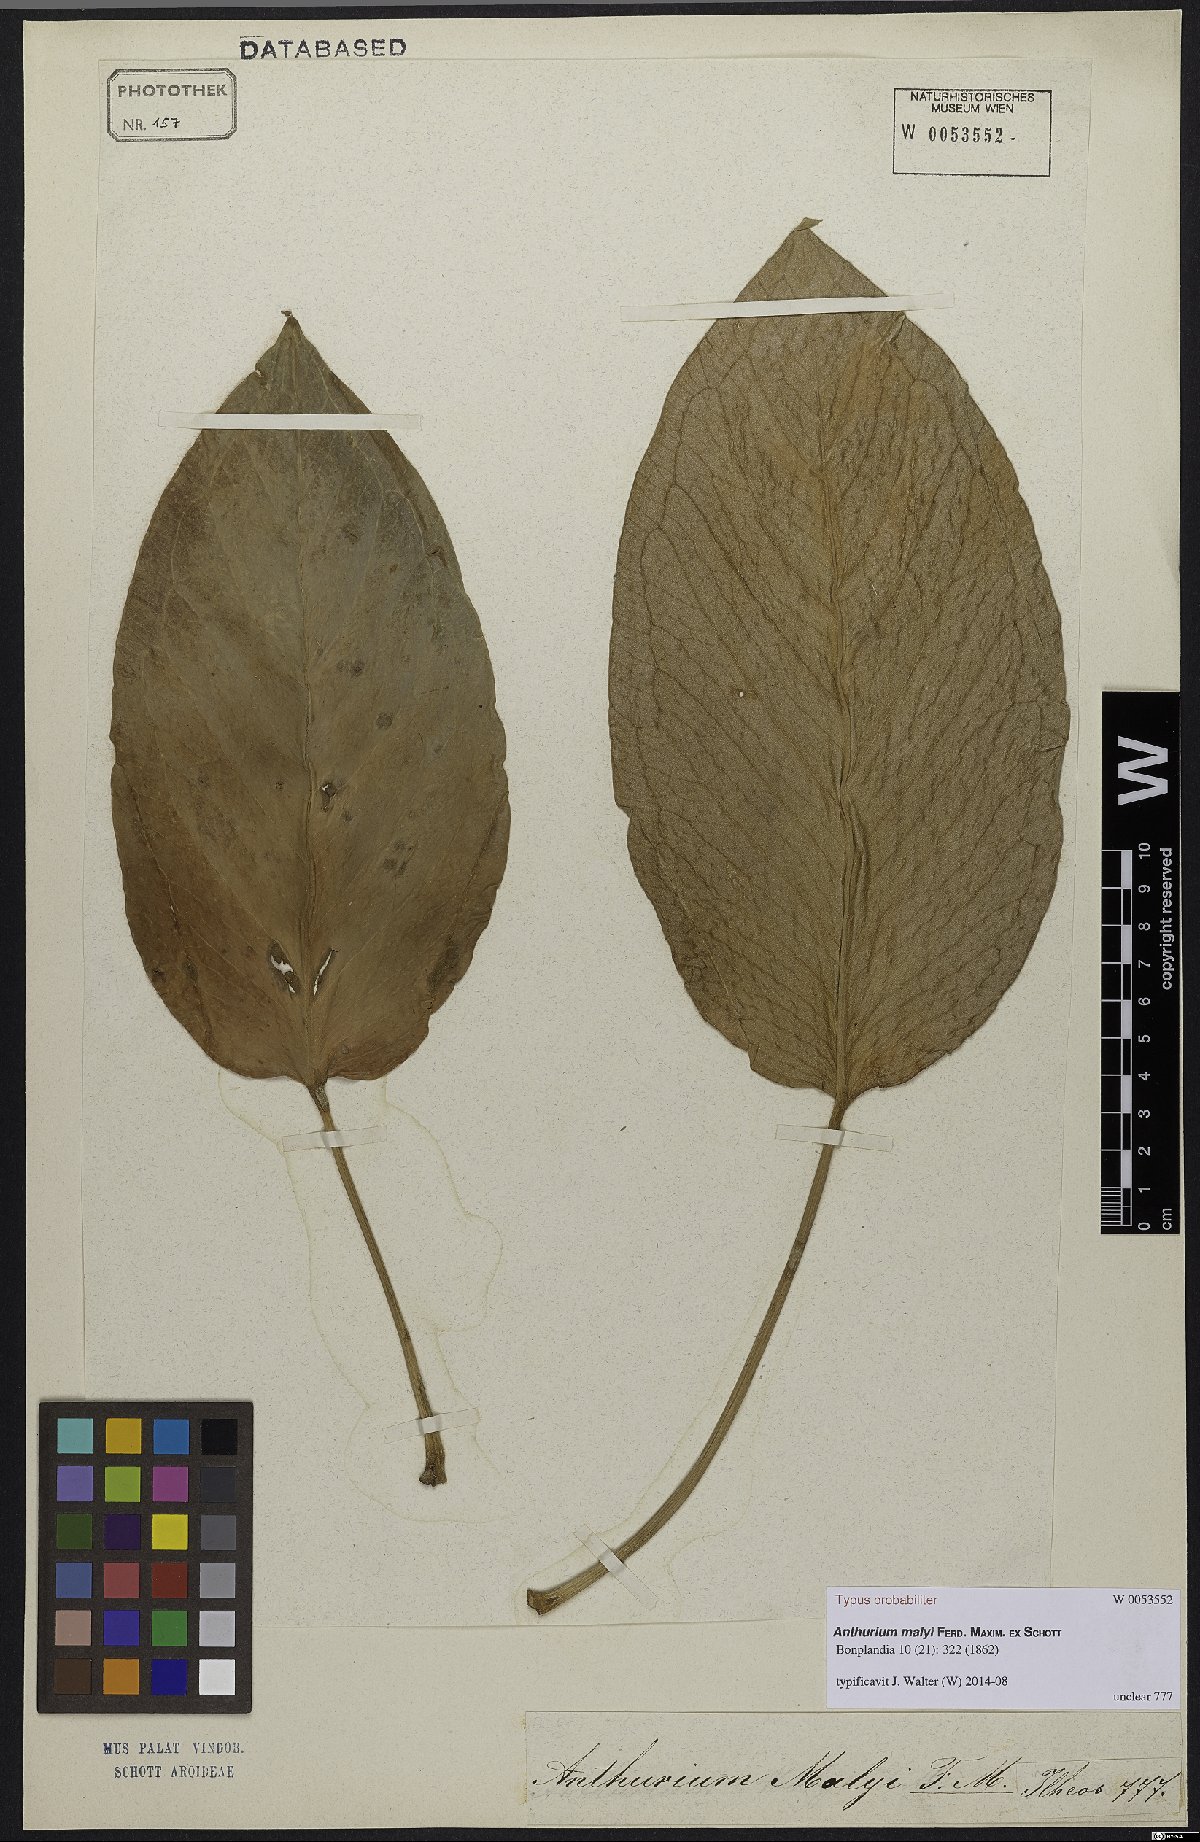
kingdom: Plantae
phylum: Tracheophyta
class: Liliopsida
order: Alismatales
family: Araceae
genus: Anthurium
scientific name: Anthurium radicans
